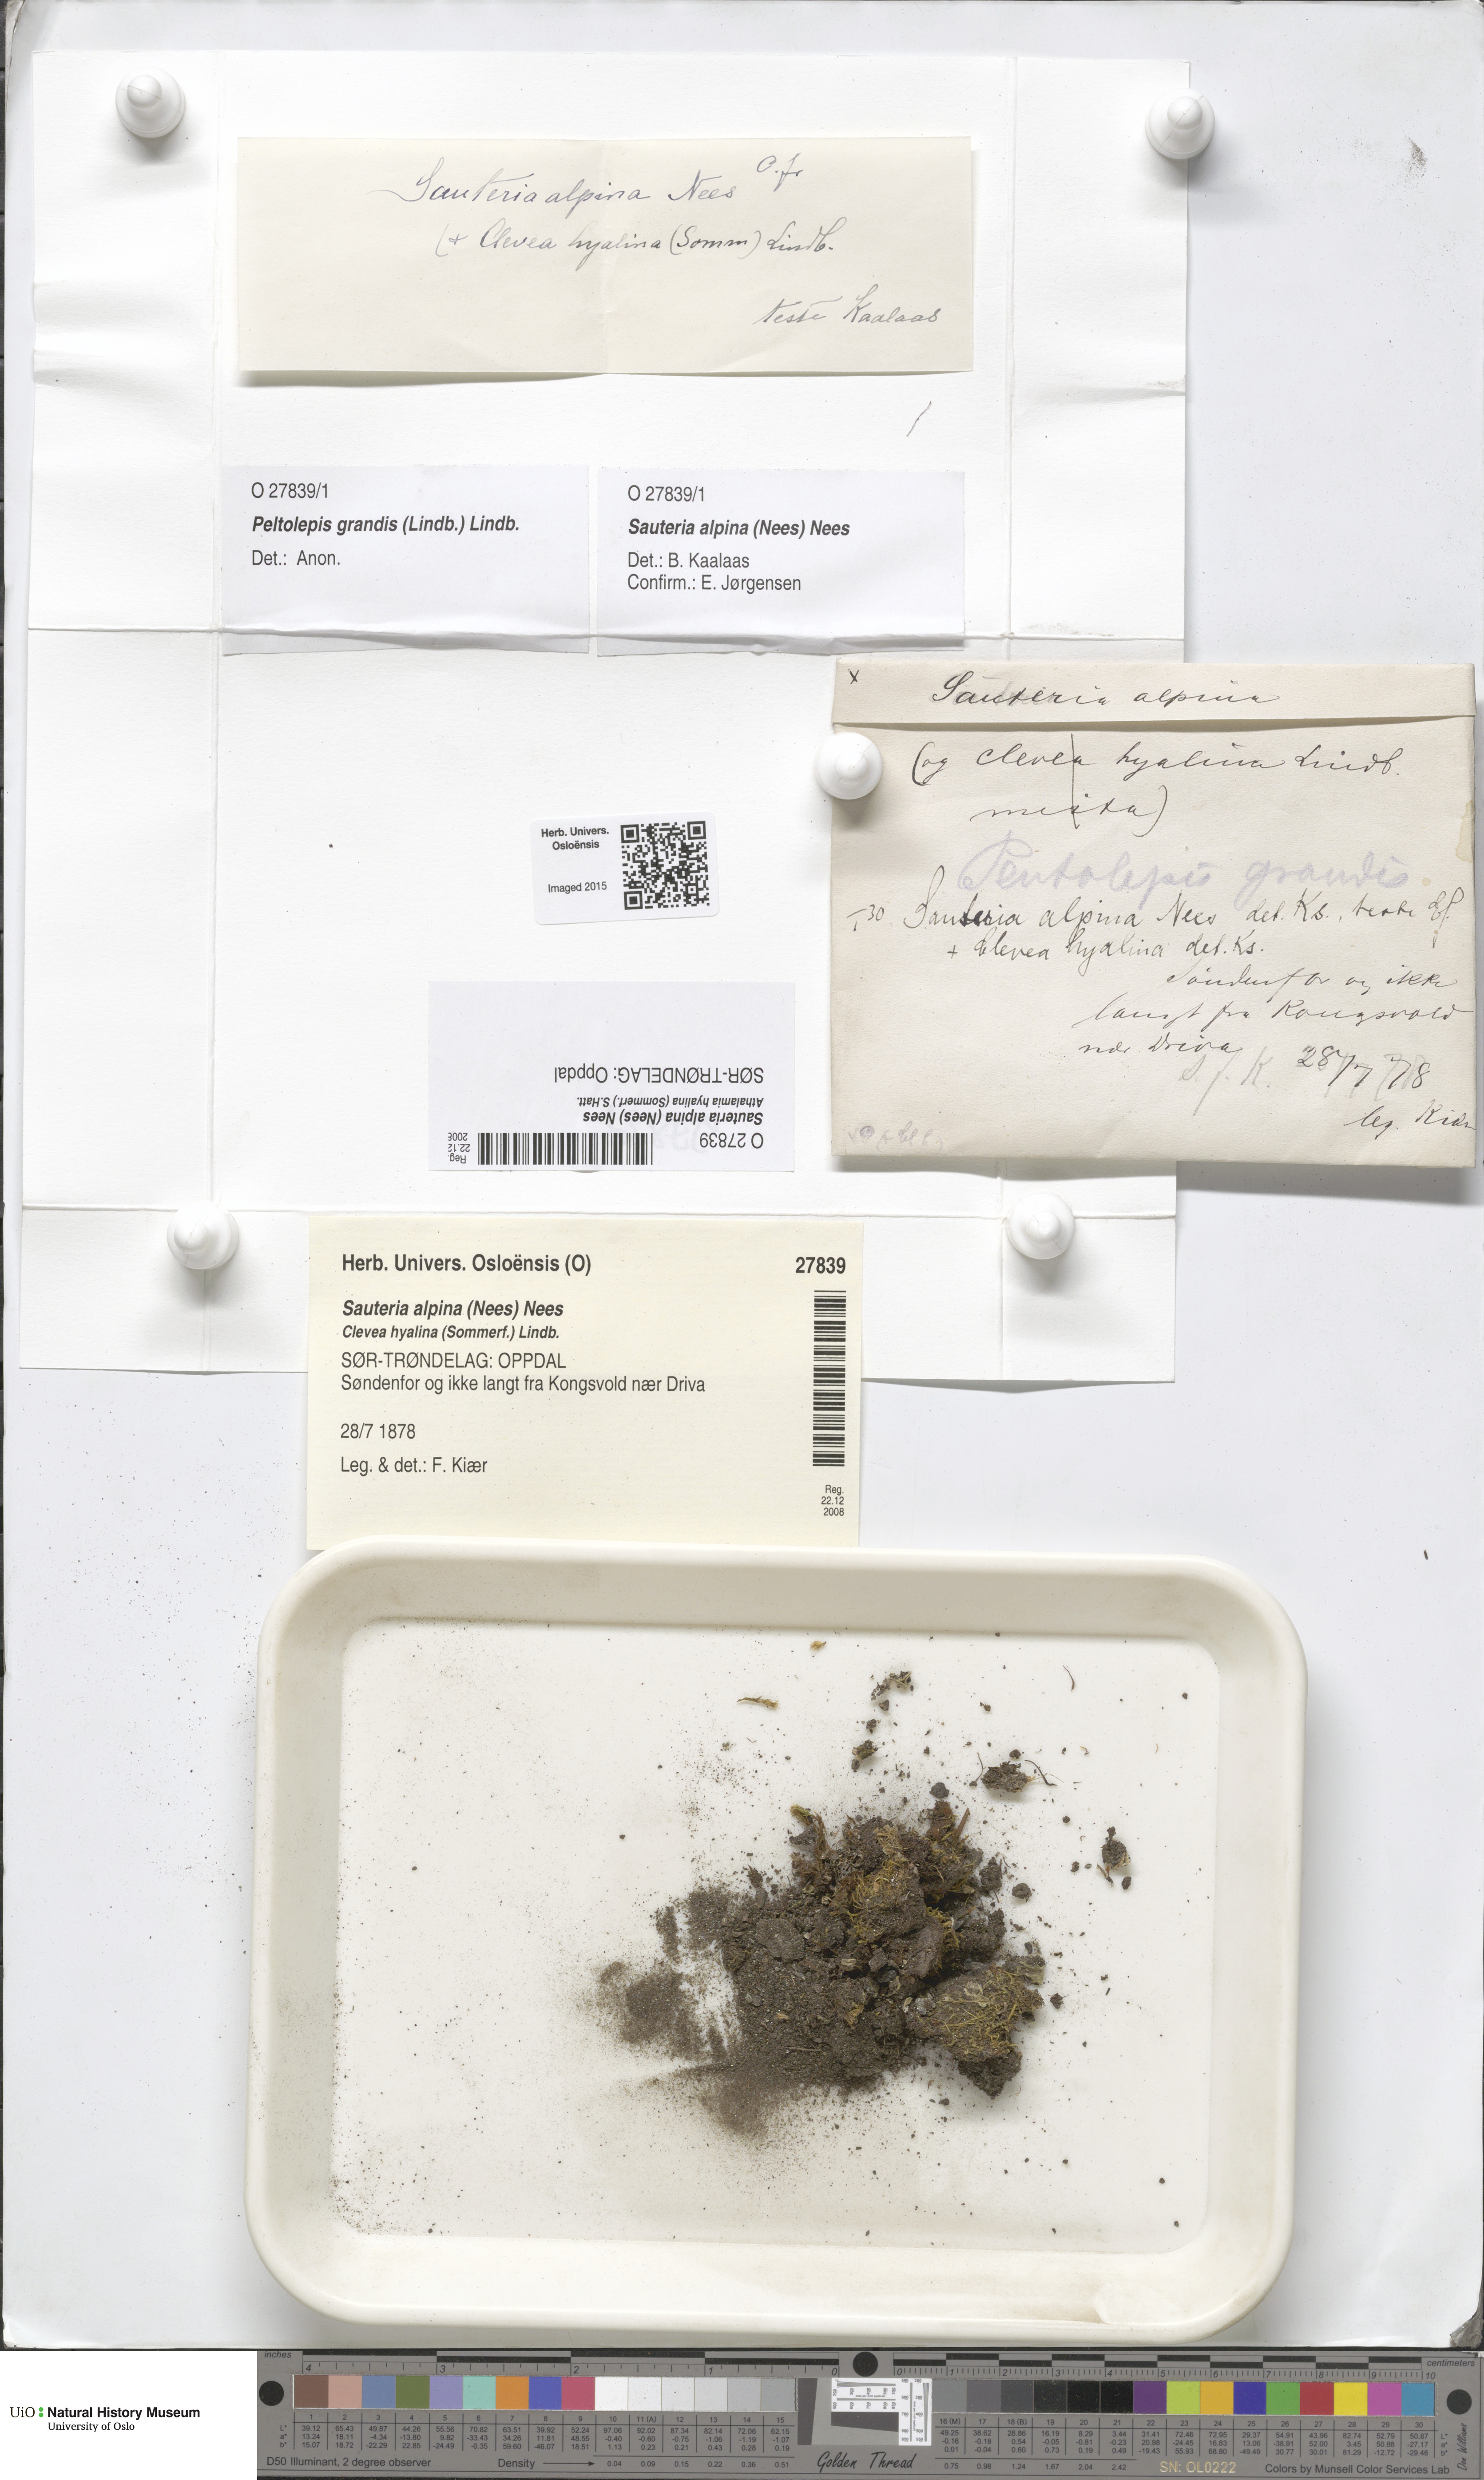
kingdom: Plantae
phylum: Marchantiophyta
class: Marchantiopsida
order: Marchantiales
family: Cleveaceae
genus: Sauteria
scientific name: Sauteria alpina
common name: Snow lungwort
